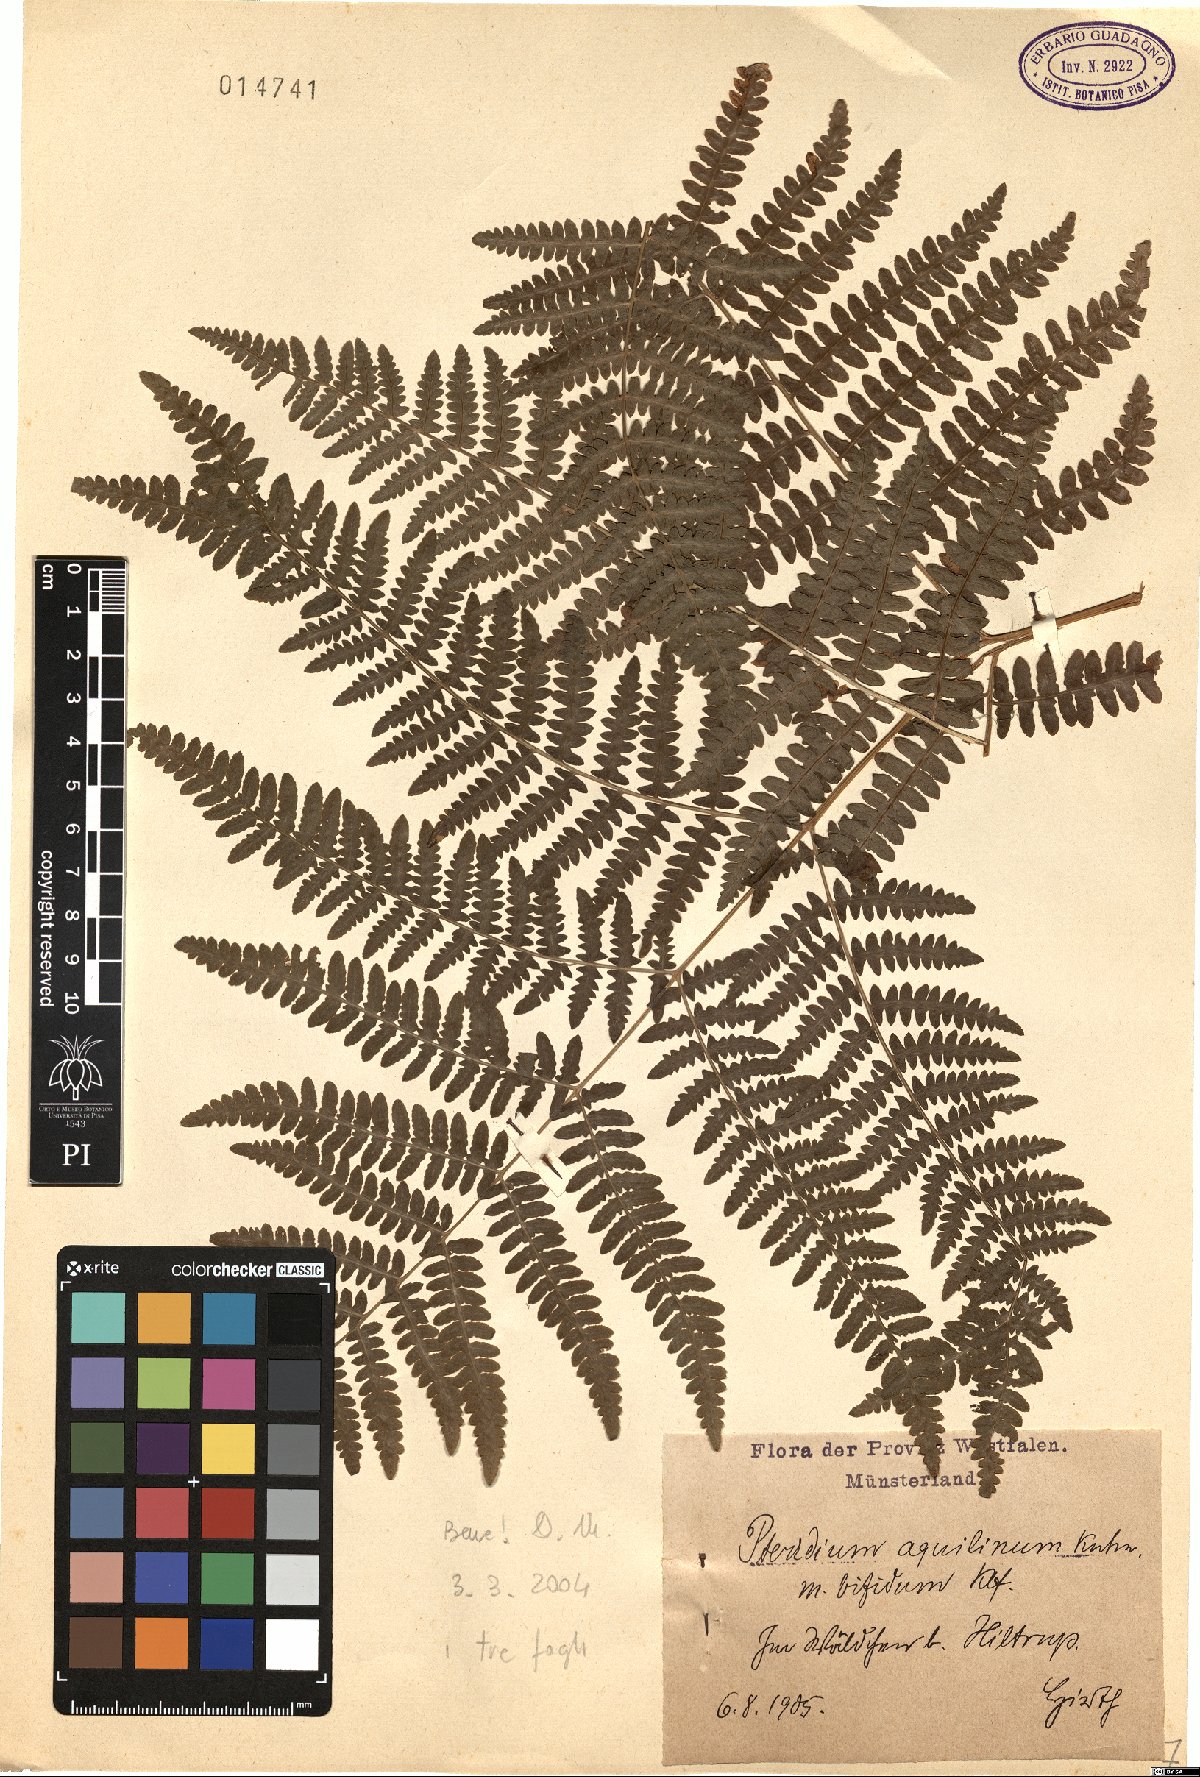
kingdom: Plantae
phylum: Tracheophyta
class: Polypodiopsida
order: Polypodiales
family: Dennstaedtiaceae
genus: Pteridium
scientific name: Pteridium aquilinum
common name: Bracken
